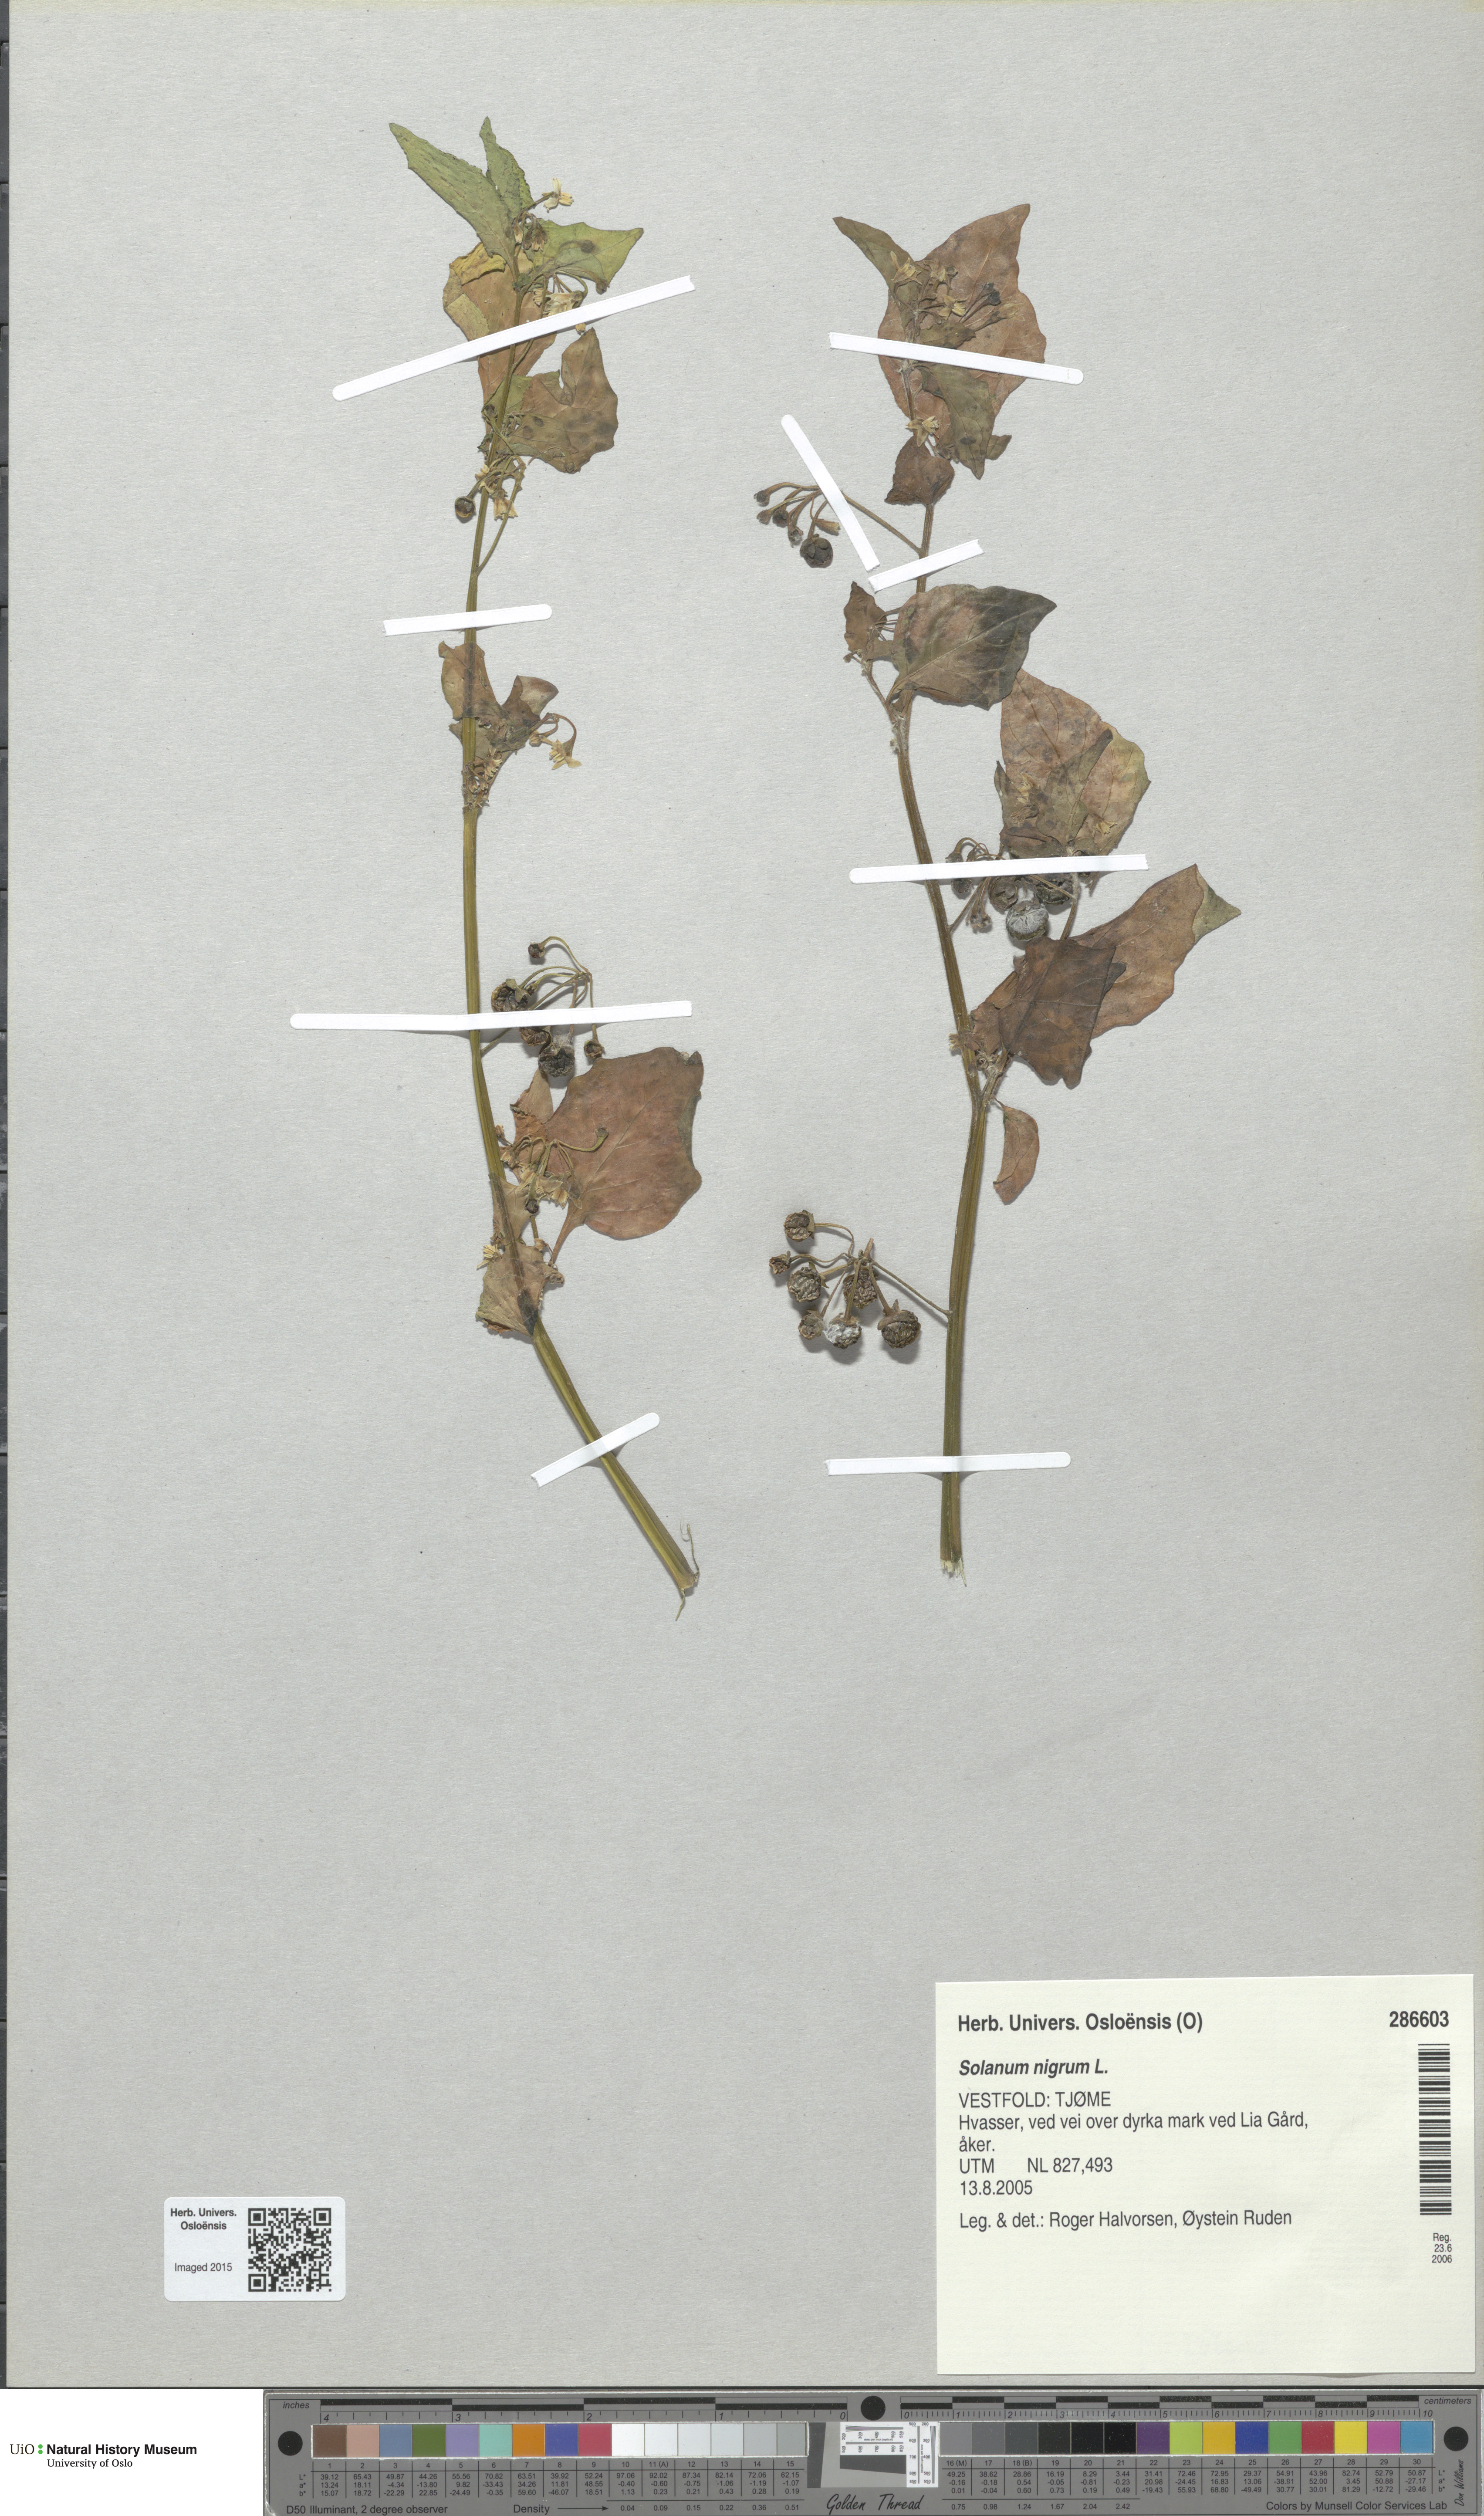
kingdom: Plantae
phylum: Tracheophyta
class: Magnoliopsida
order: Solanales
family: Solanaceae
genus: Solanum
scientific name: Solanum nigrum
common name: Black nightshade
